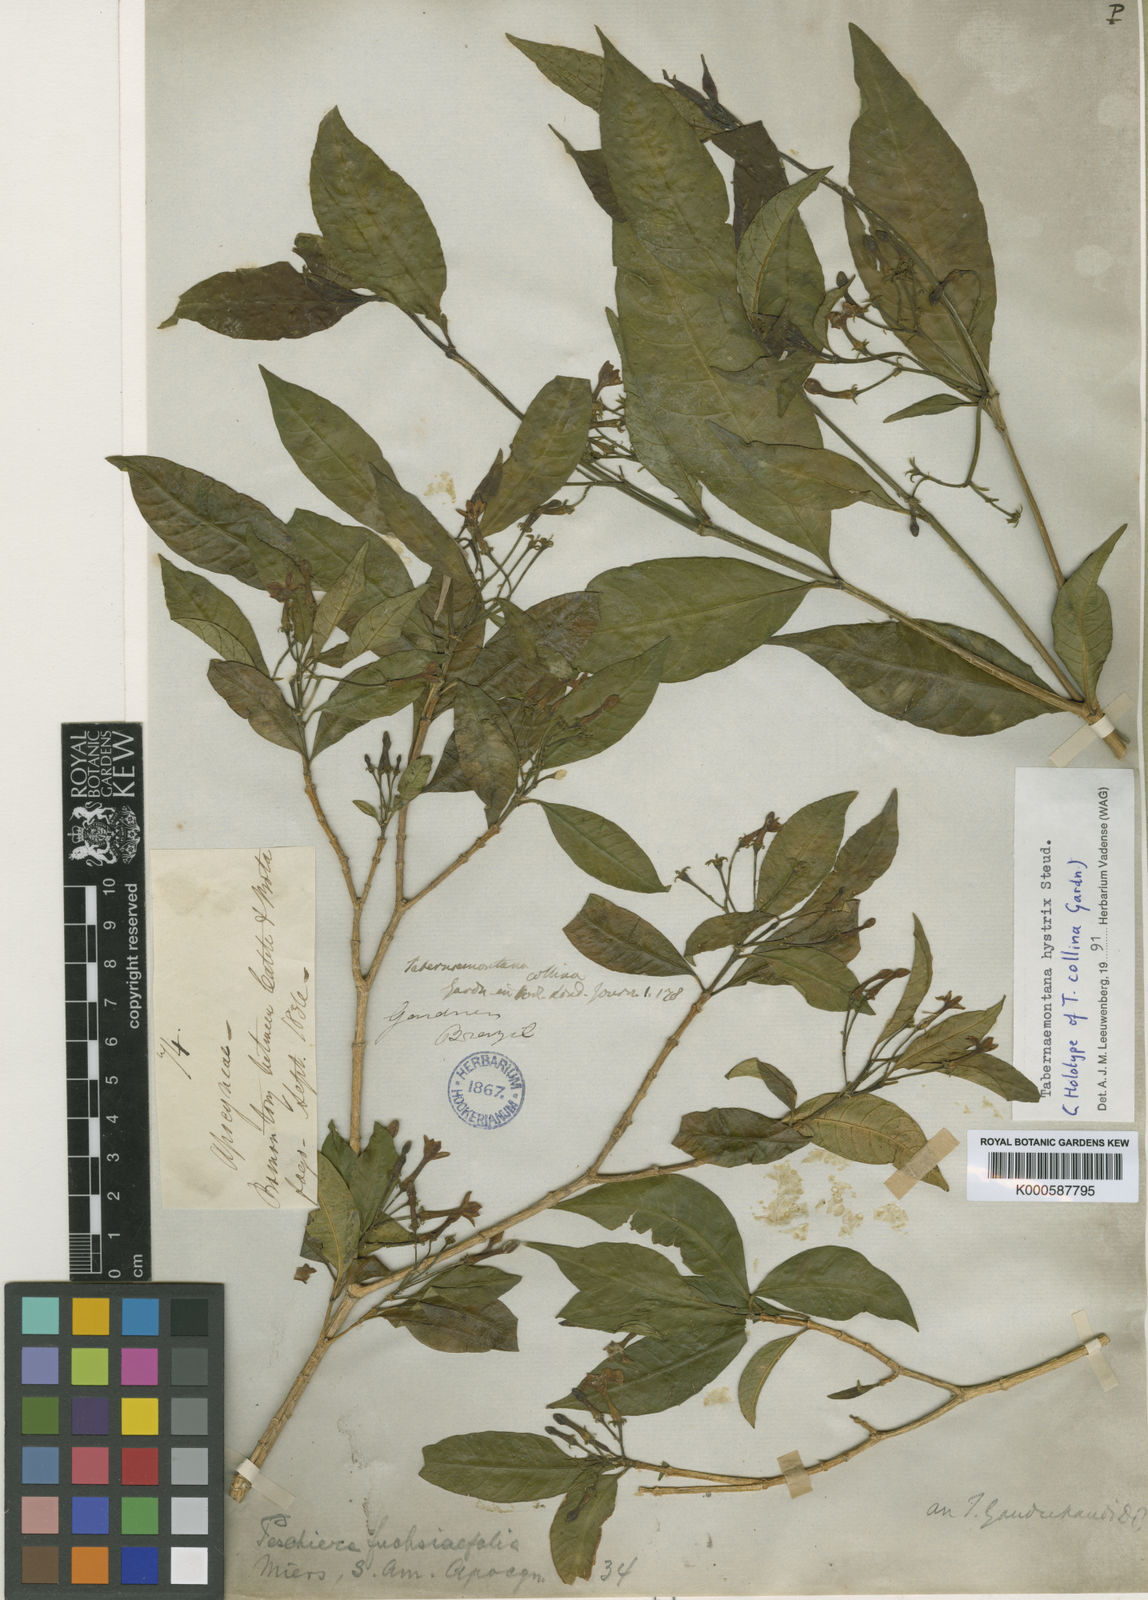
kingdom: Plantae
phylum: Tracheophyta
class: Magnoliopsida
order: Gentianales
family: Apocynaceae
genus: Tabernaemontana
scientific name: Tabernaemontana hystrix
